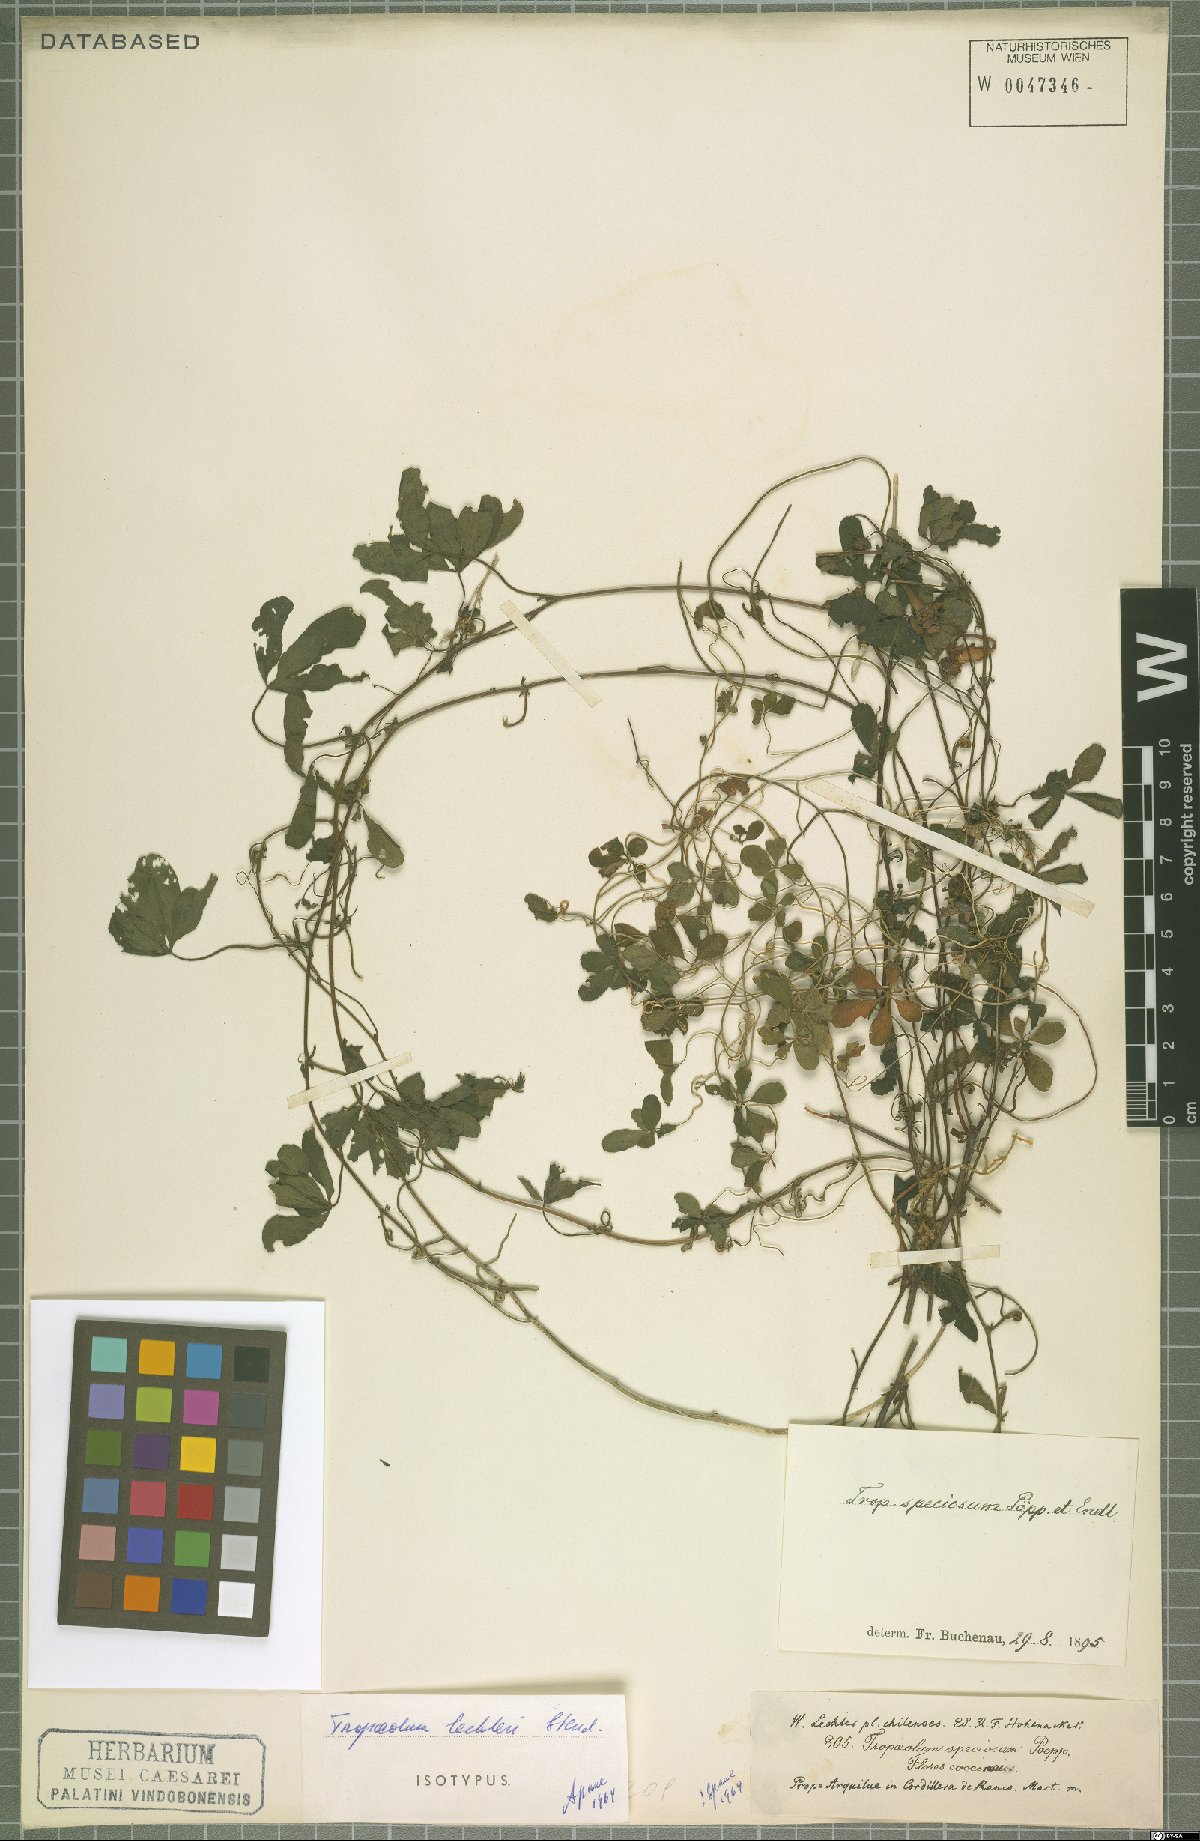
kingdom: Plantae
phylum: Tracheophyta
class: Magnoliopsida
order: Brassicales
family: Tropaeolaceae
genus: Tropaeolum
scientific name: Tropaeolum speciosum
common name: Flame nasturtium
